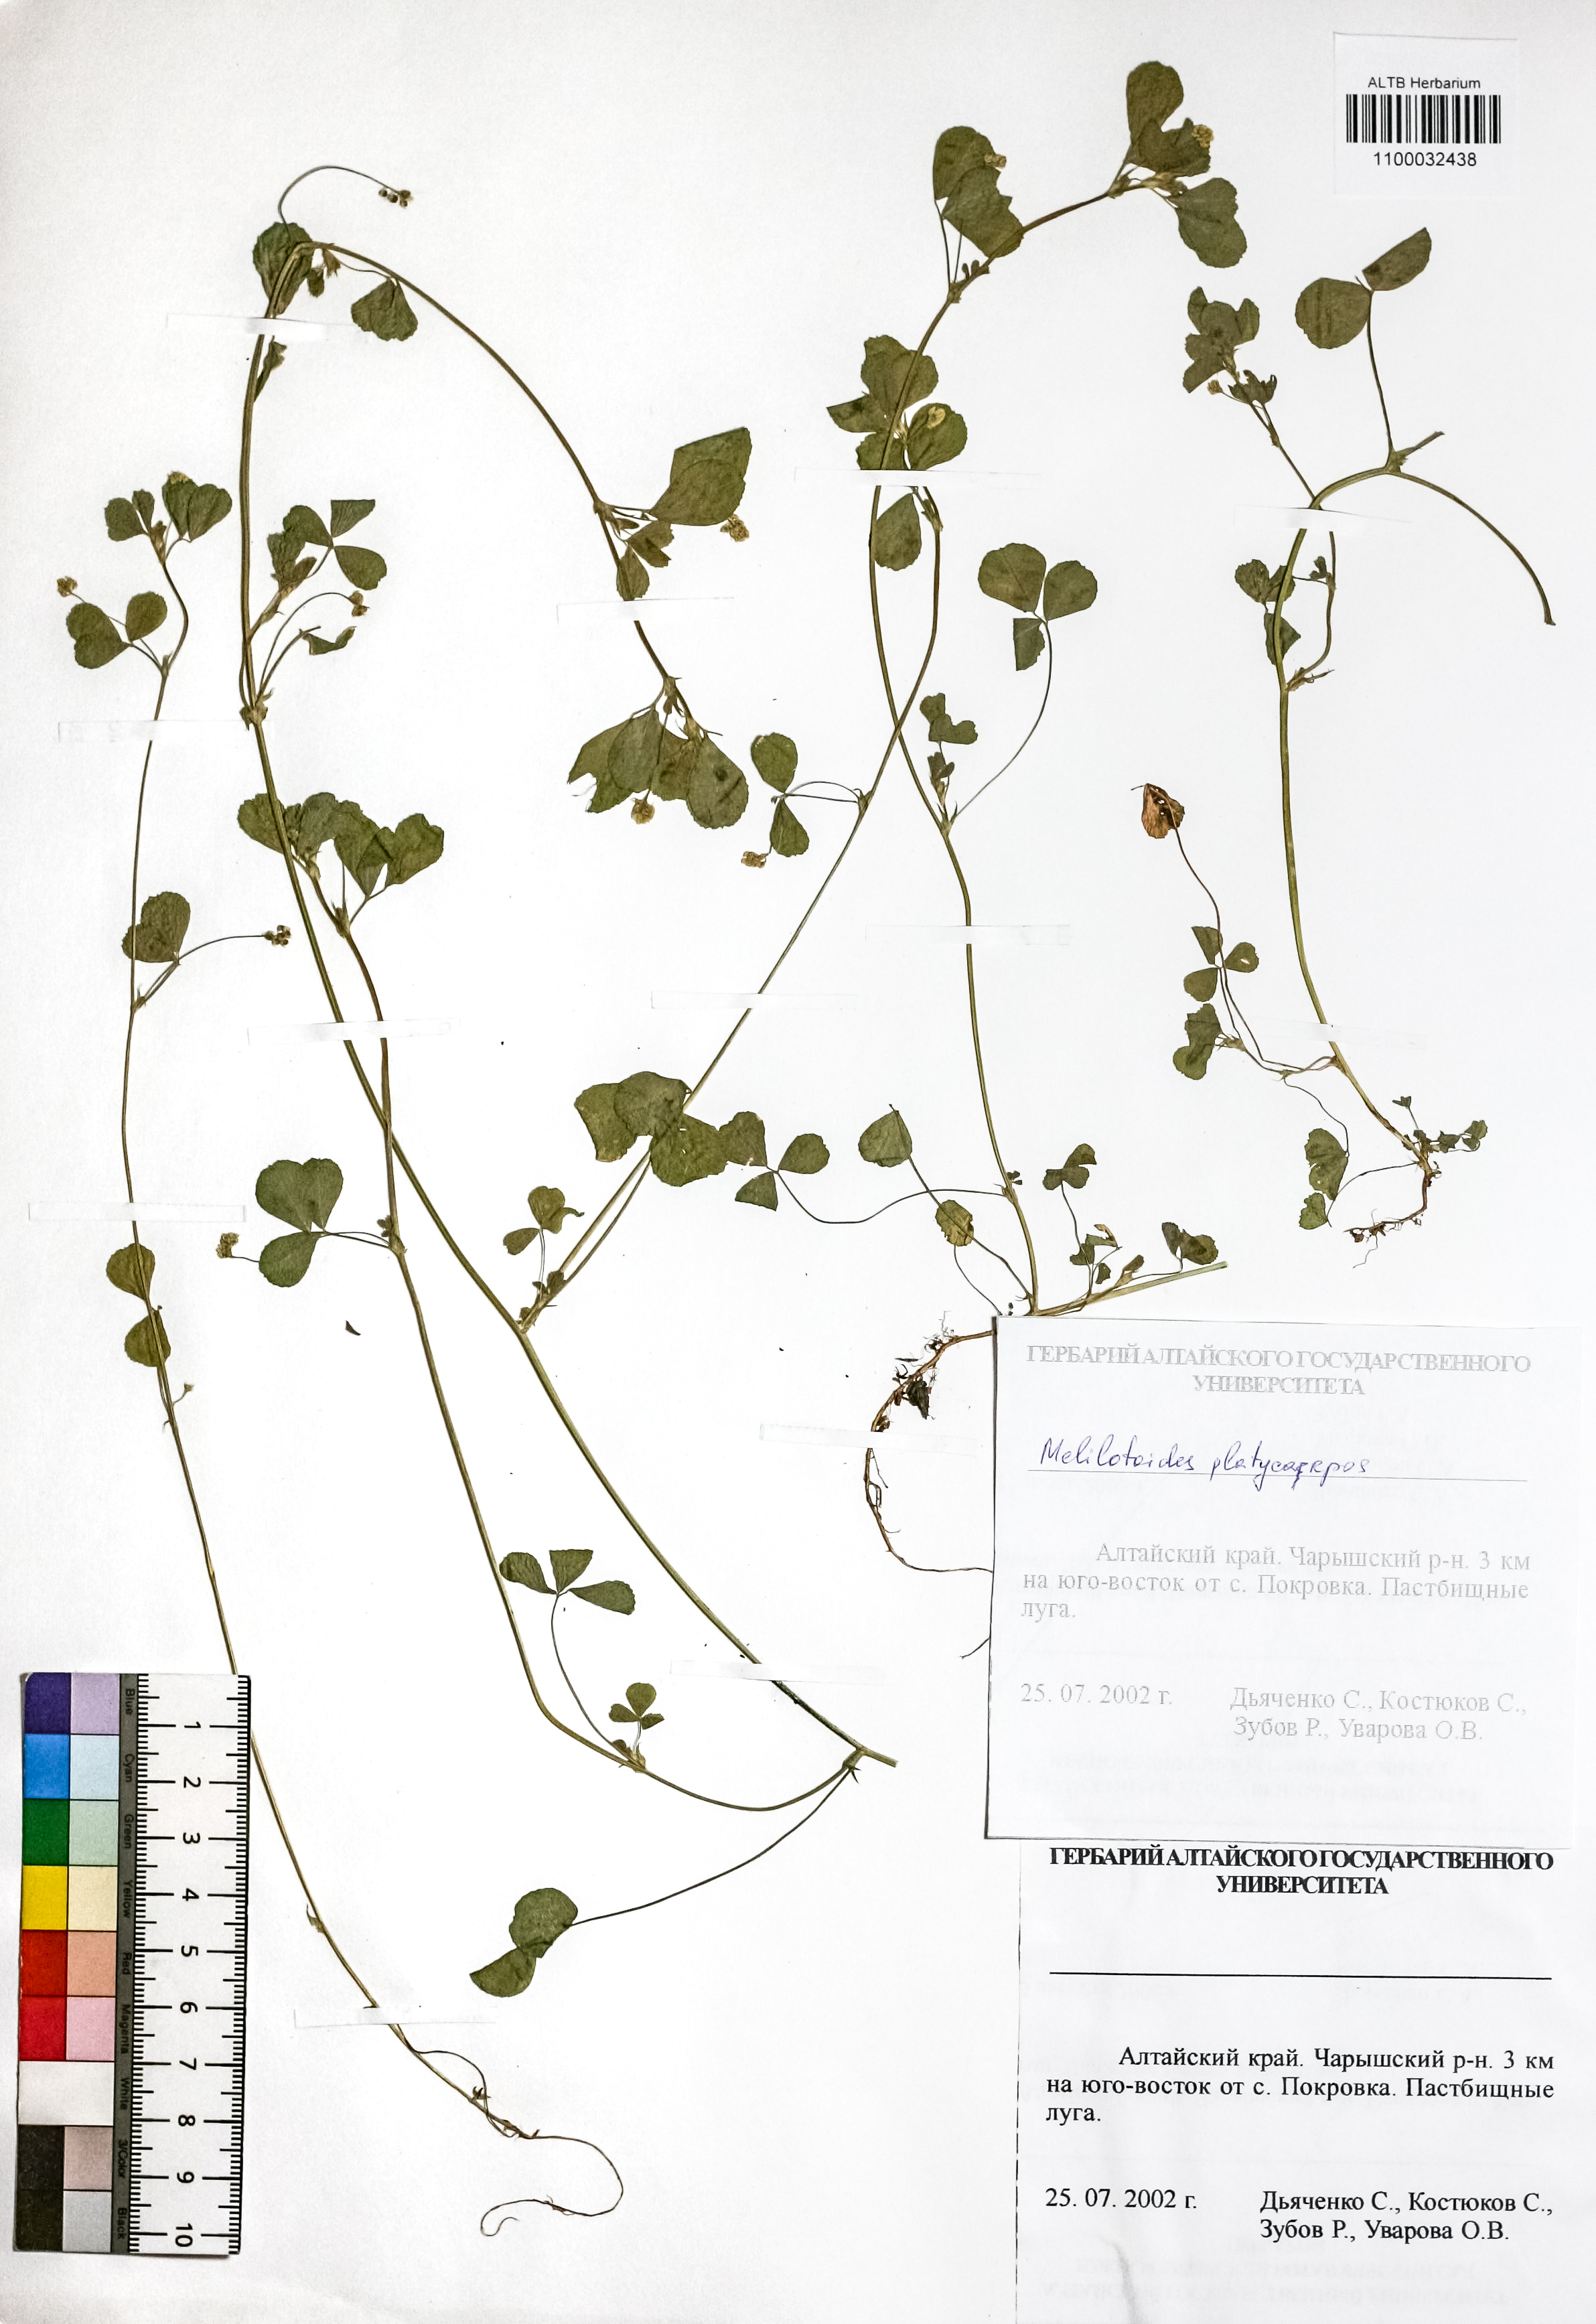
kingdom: Plantae
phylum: Tracheophyta
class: Magnoliopsida
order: Fabales
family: Fabaceae
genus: Medicago
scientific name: Medicago platycarpos
